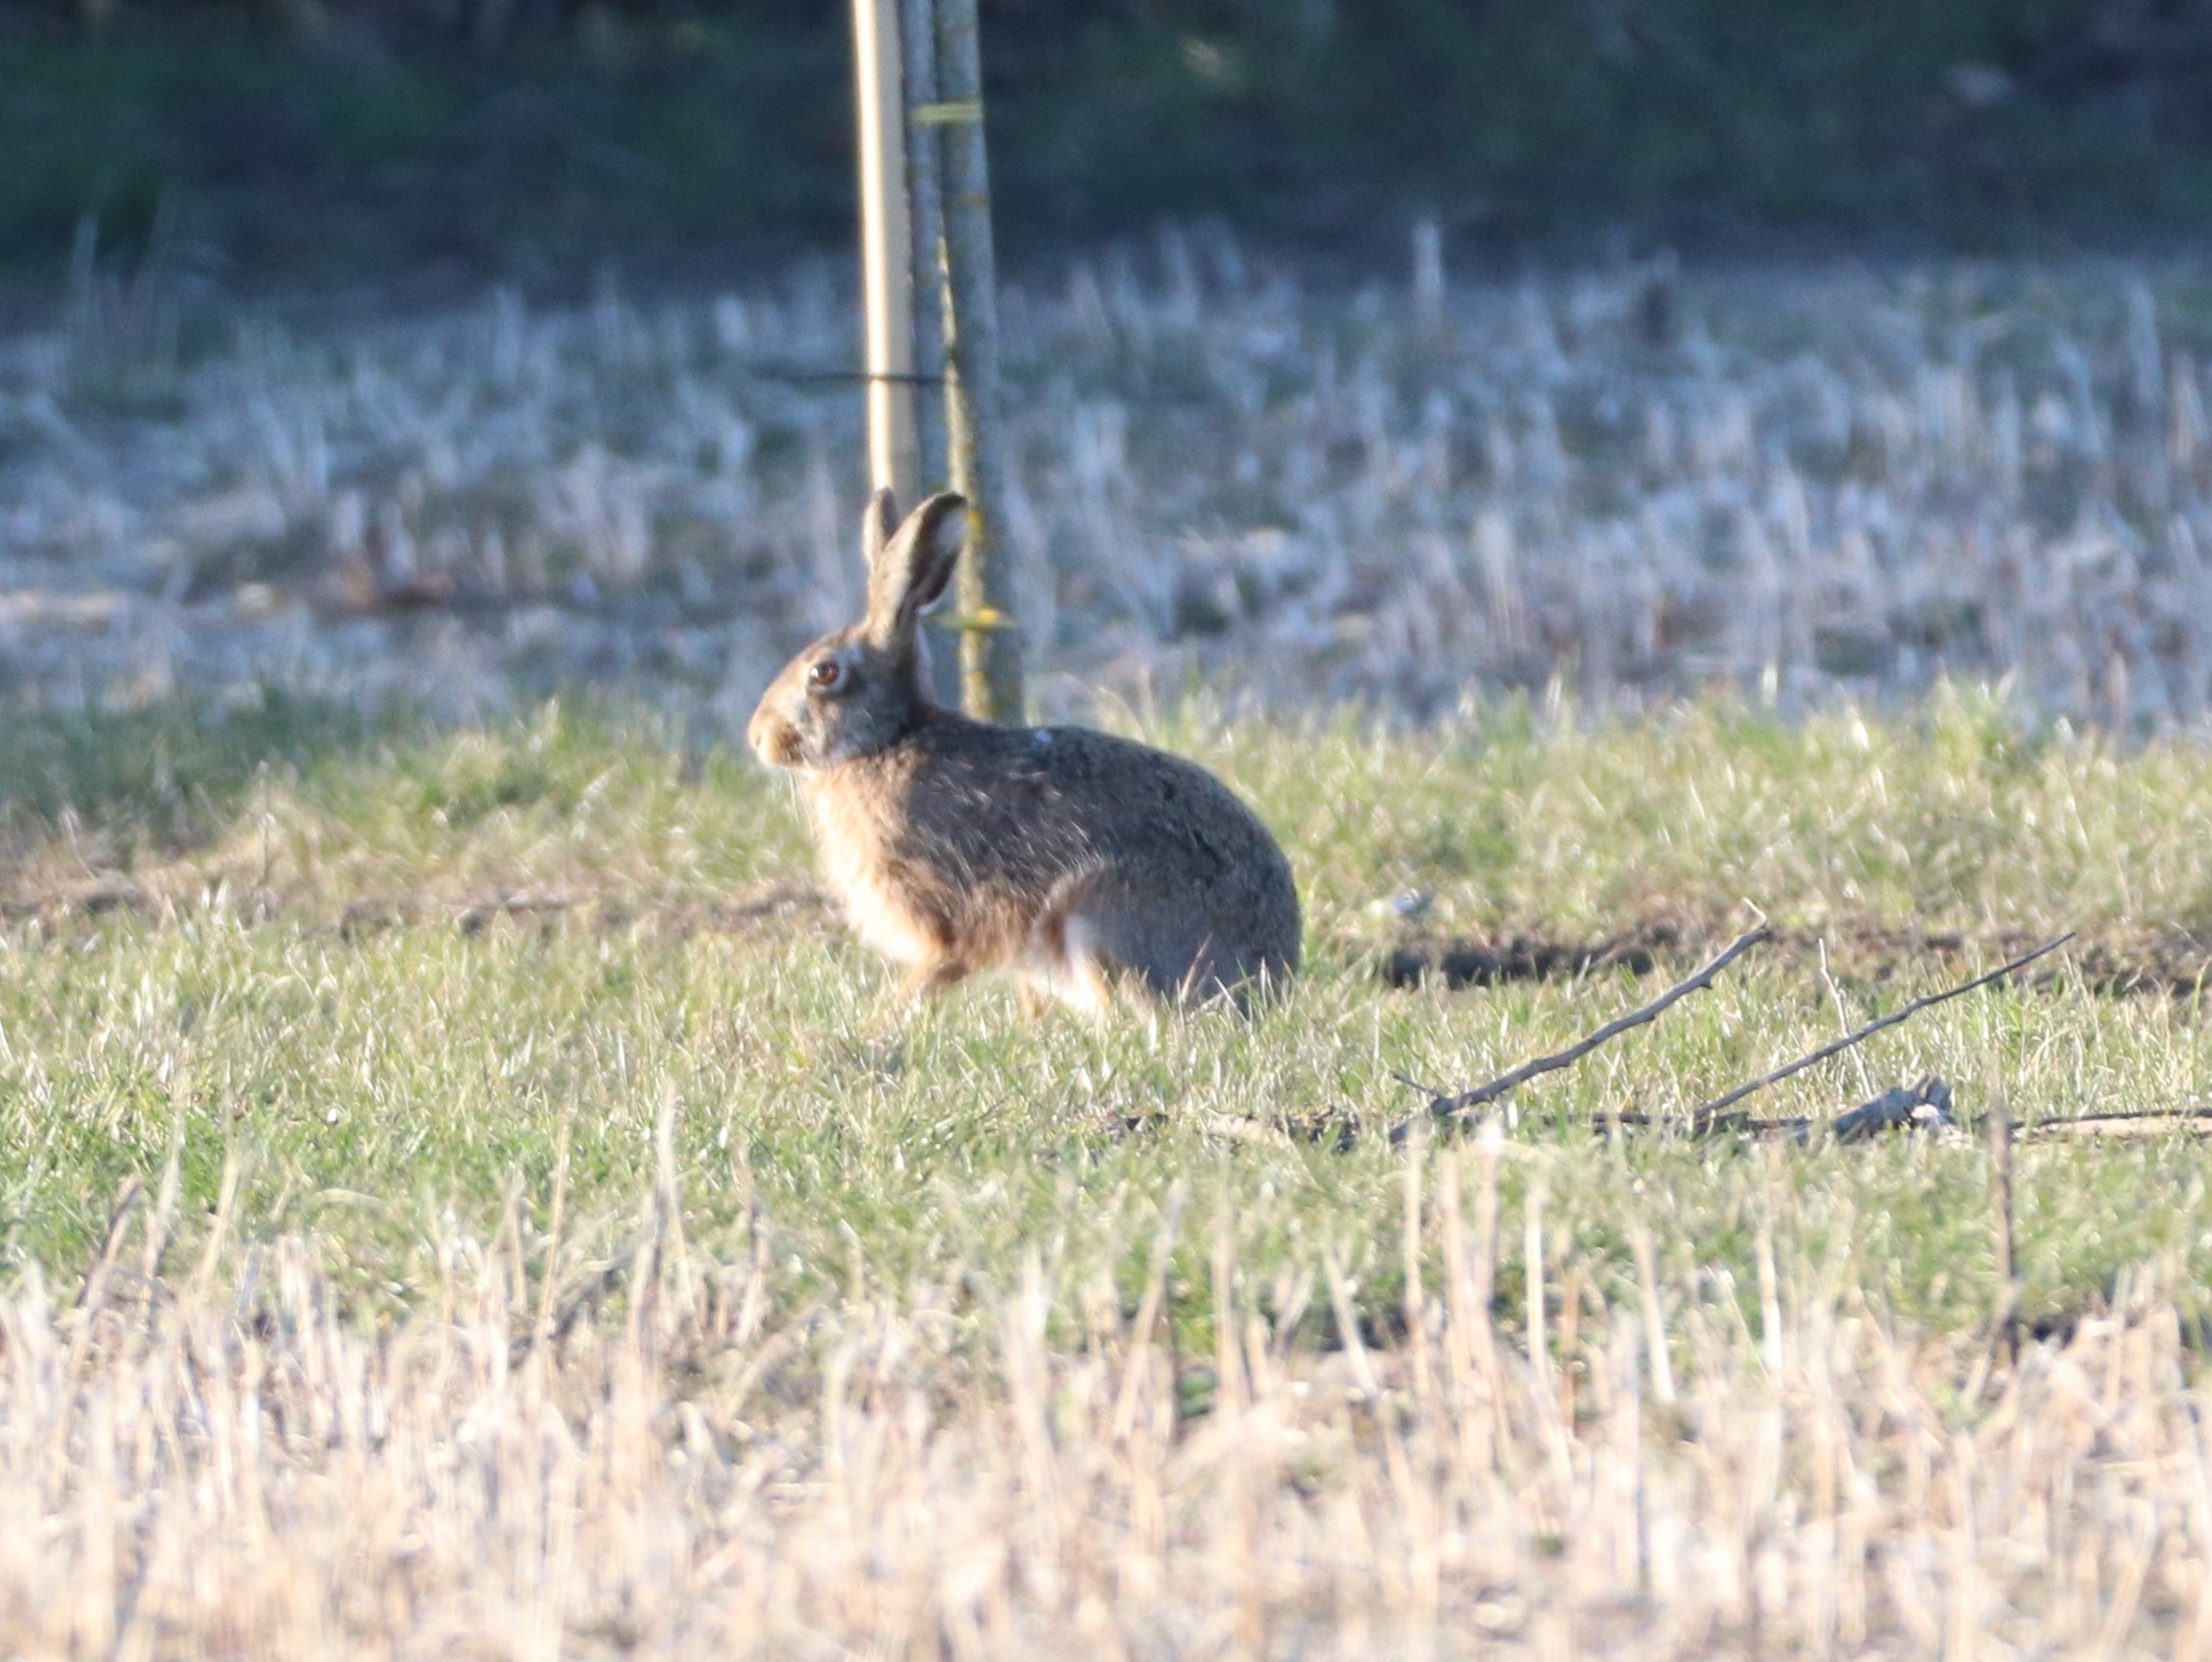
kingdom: Animalia
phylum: Chordata
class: Mammalia
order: Lagomorpha
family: Leporidae
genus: Lepus
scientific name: Lepus europaeus
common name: Hare
